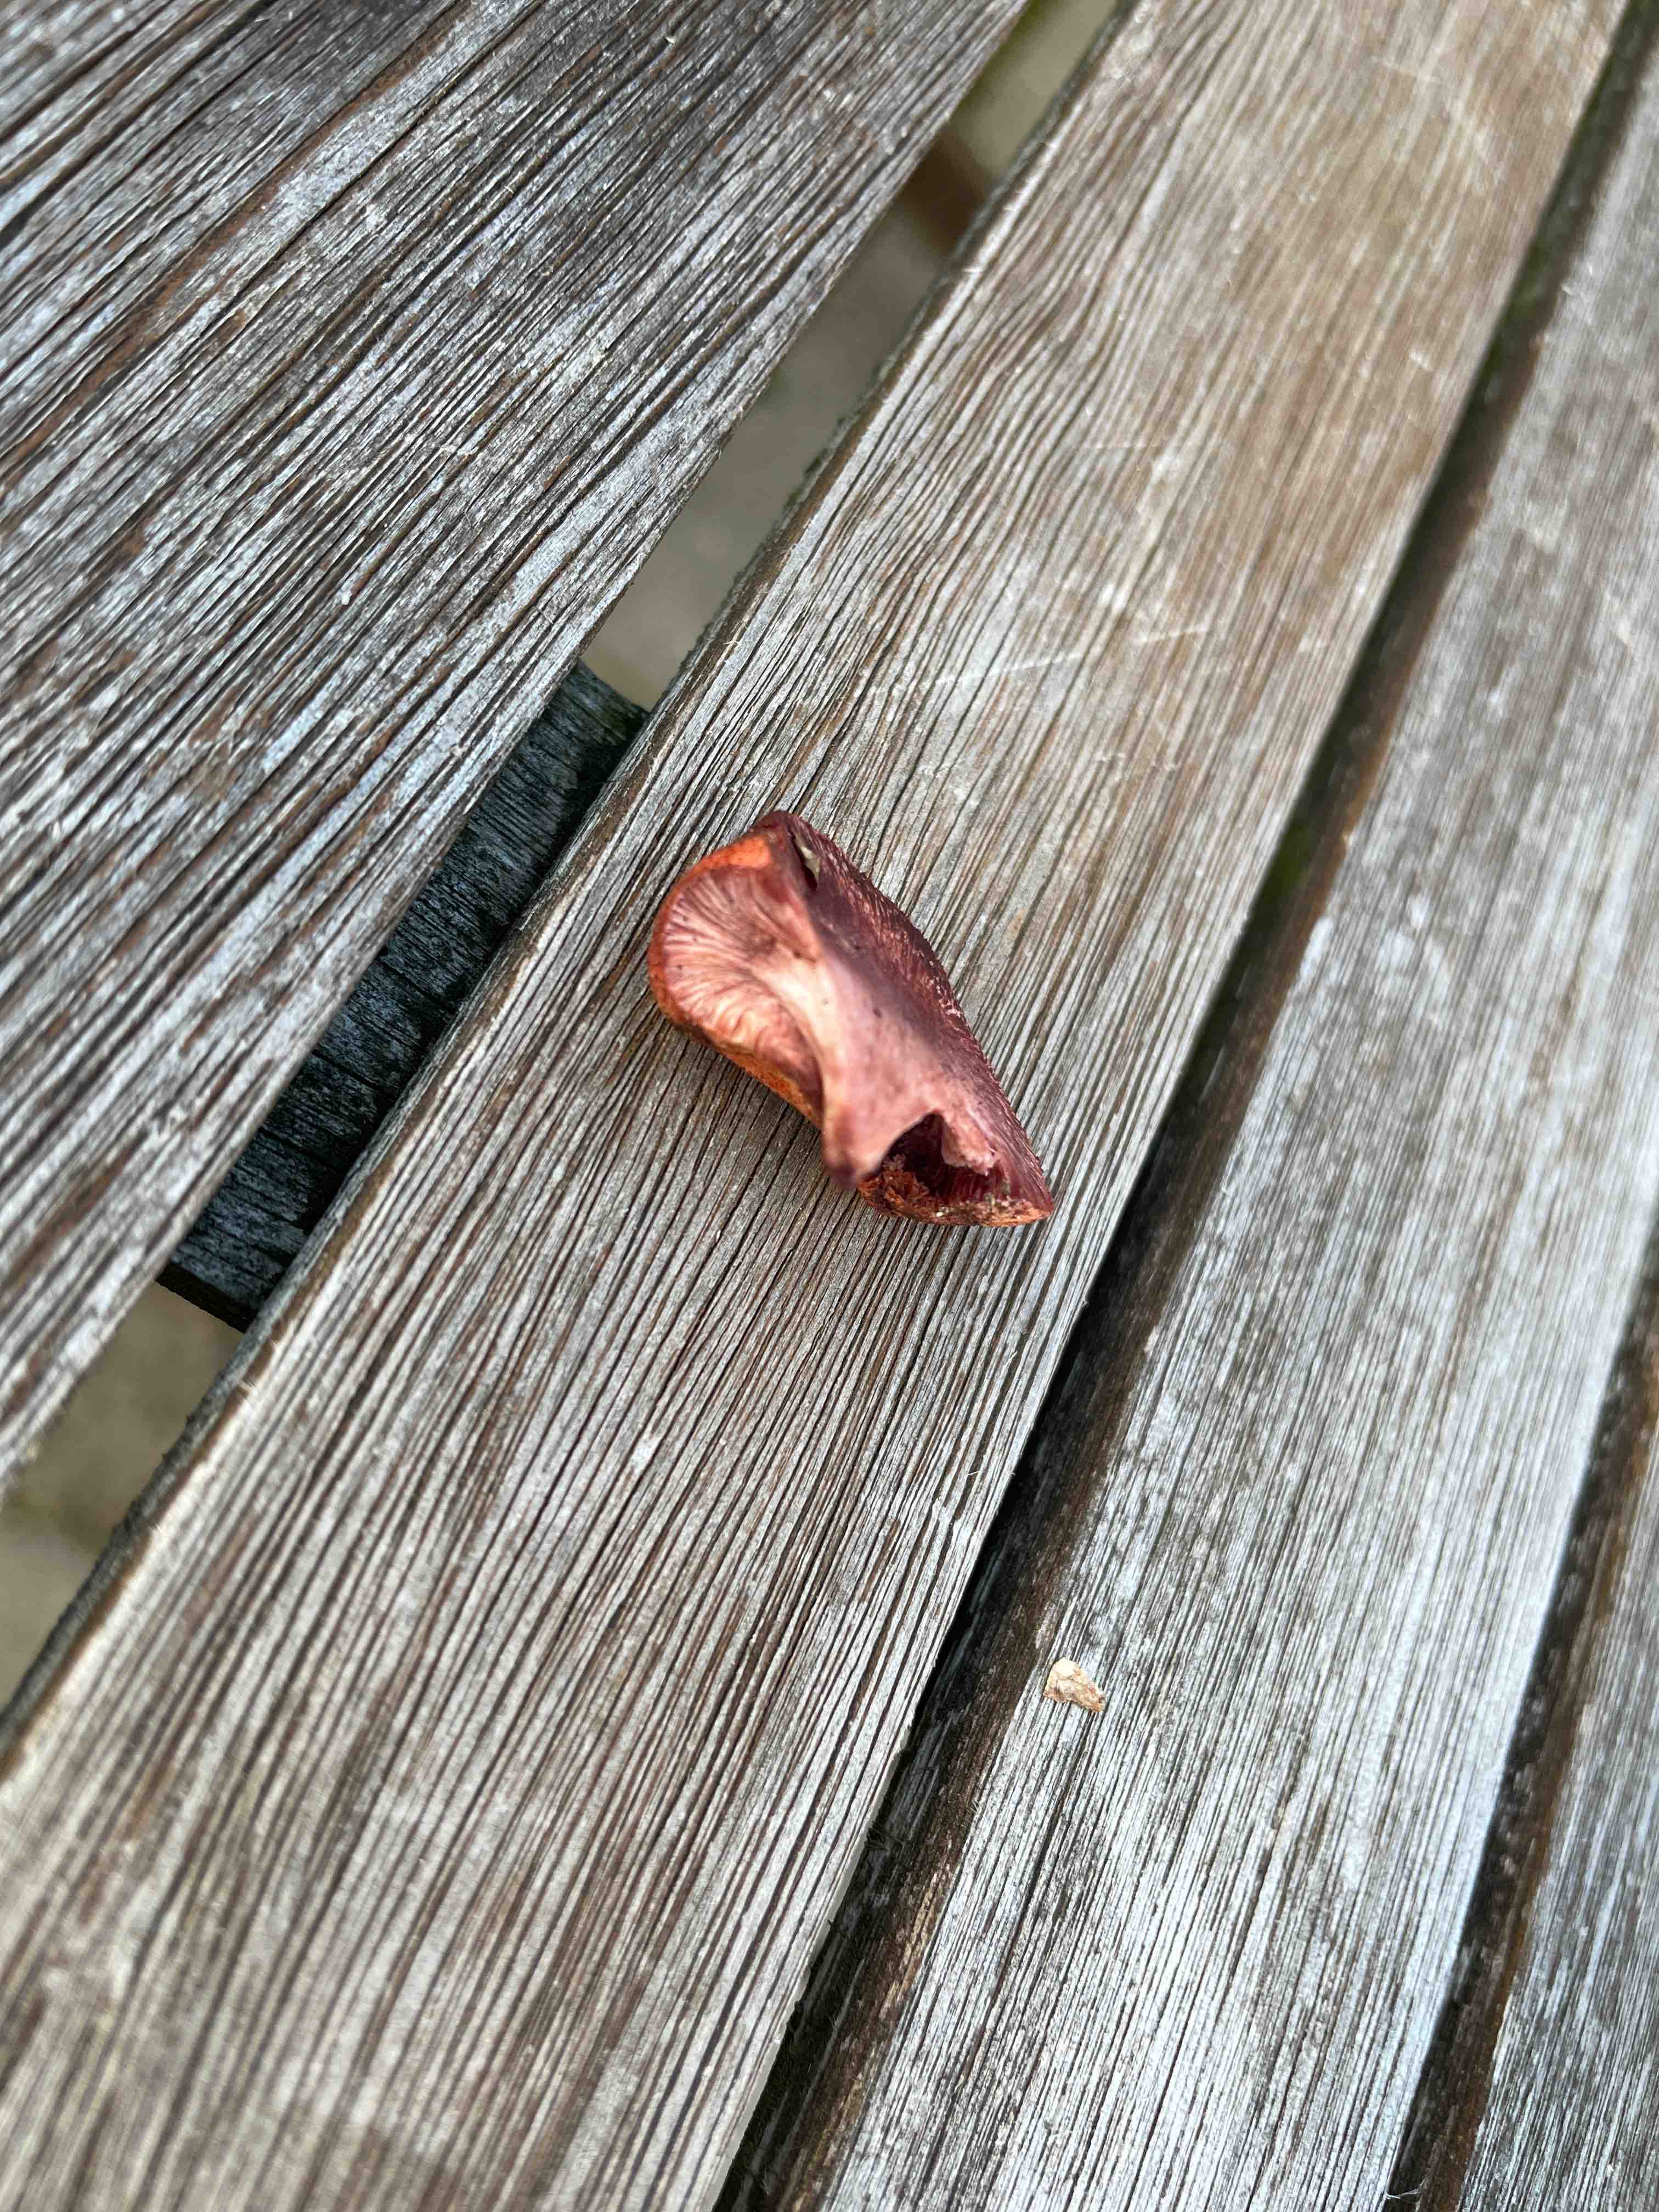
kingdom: Fungi
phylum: Basidiomycota
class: Agaricomycetes
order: Agaricales
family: Fistulinaceae
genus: Fistulina
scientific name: Fistulina hepatica
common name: oksetunge
